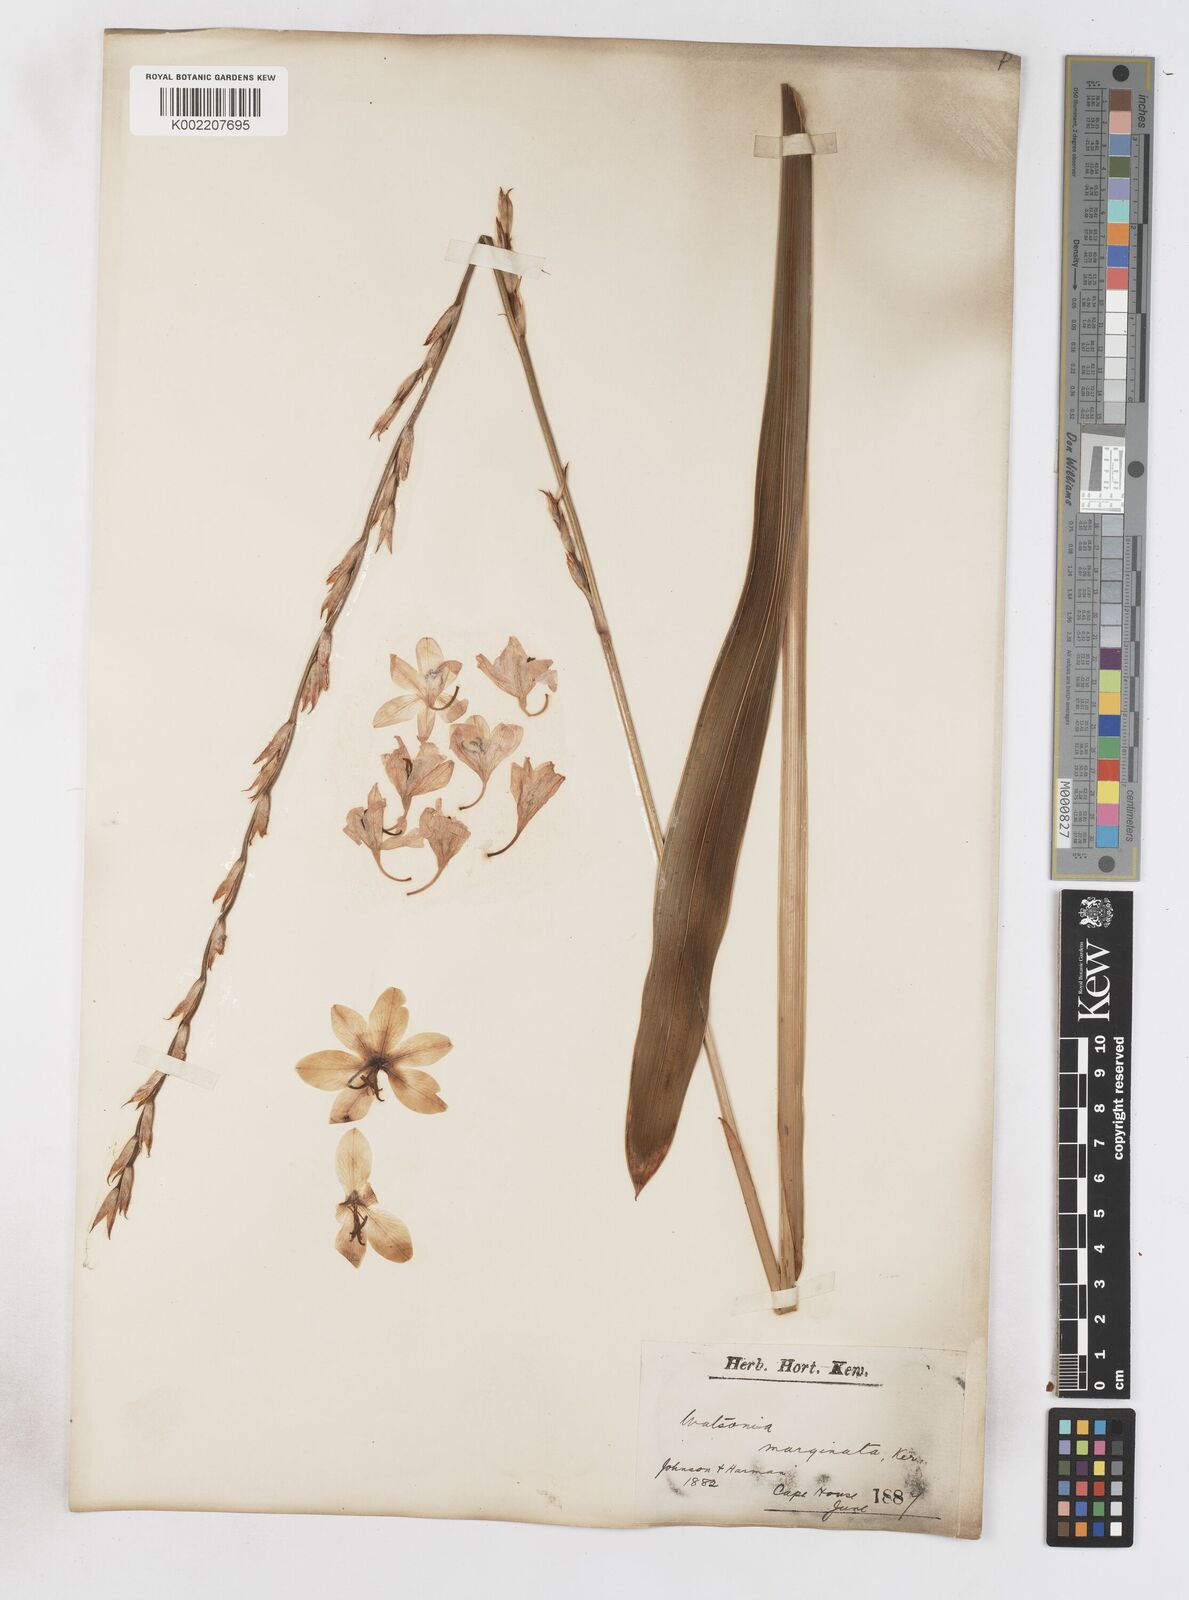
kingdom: Plantae
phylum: Tracheophyta
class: Liliopsida
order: Asparagales
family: Iridaceae
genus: Watsonia
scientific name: Watsonia marginata
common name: Fragrant bugle-lily
